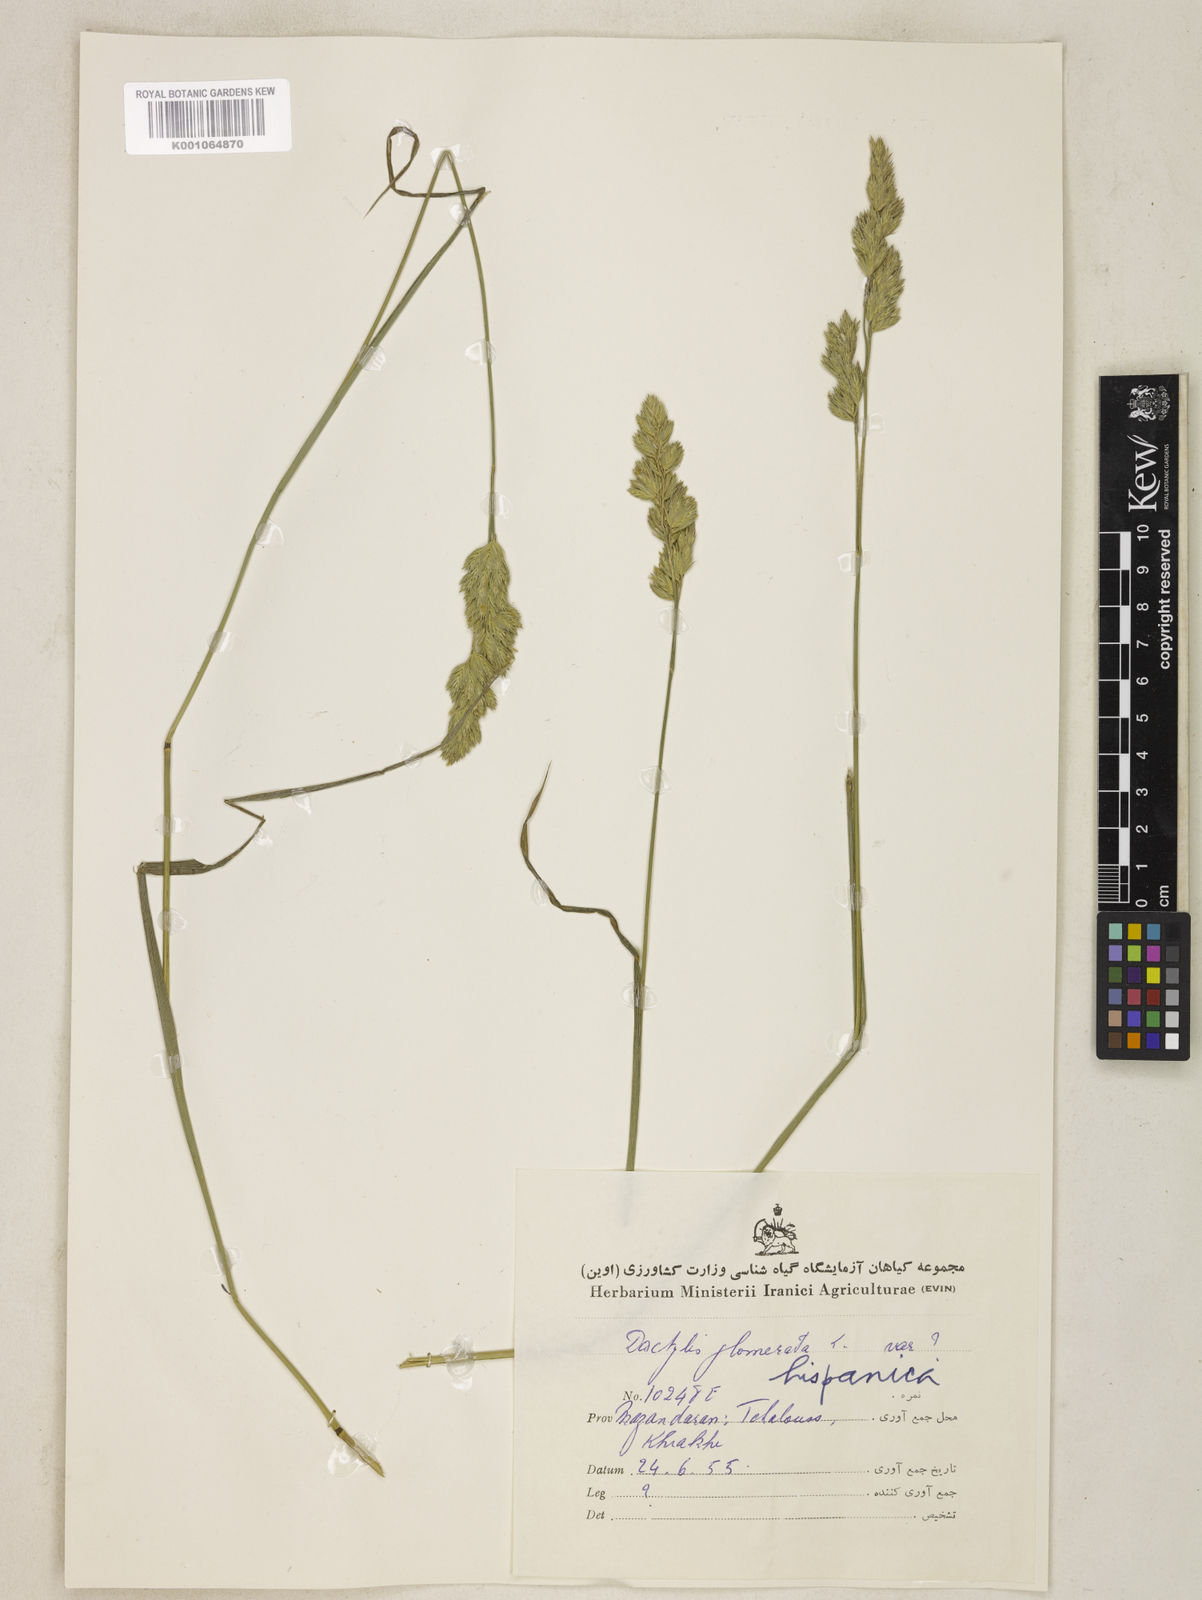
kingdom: Plantae
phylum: Tracheophyta
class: Liliopsida
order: Poales
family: Poaceae
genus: Dactylis
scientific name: Dactylis glomerata
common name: Orchardgrass
